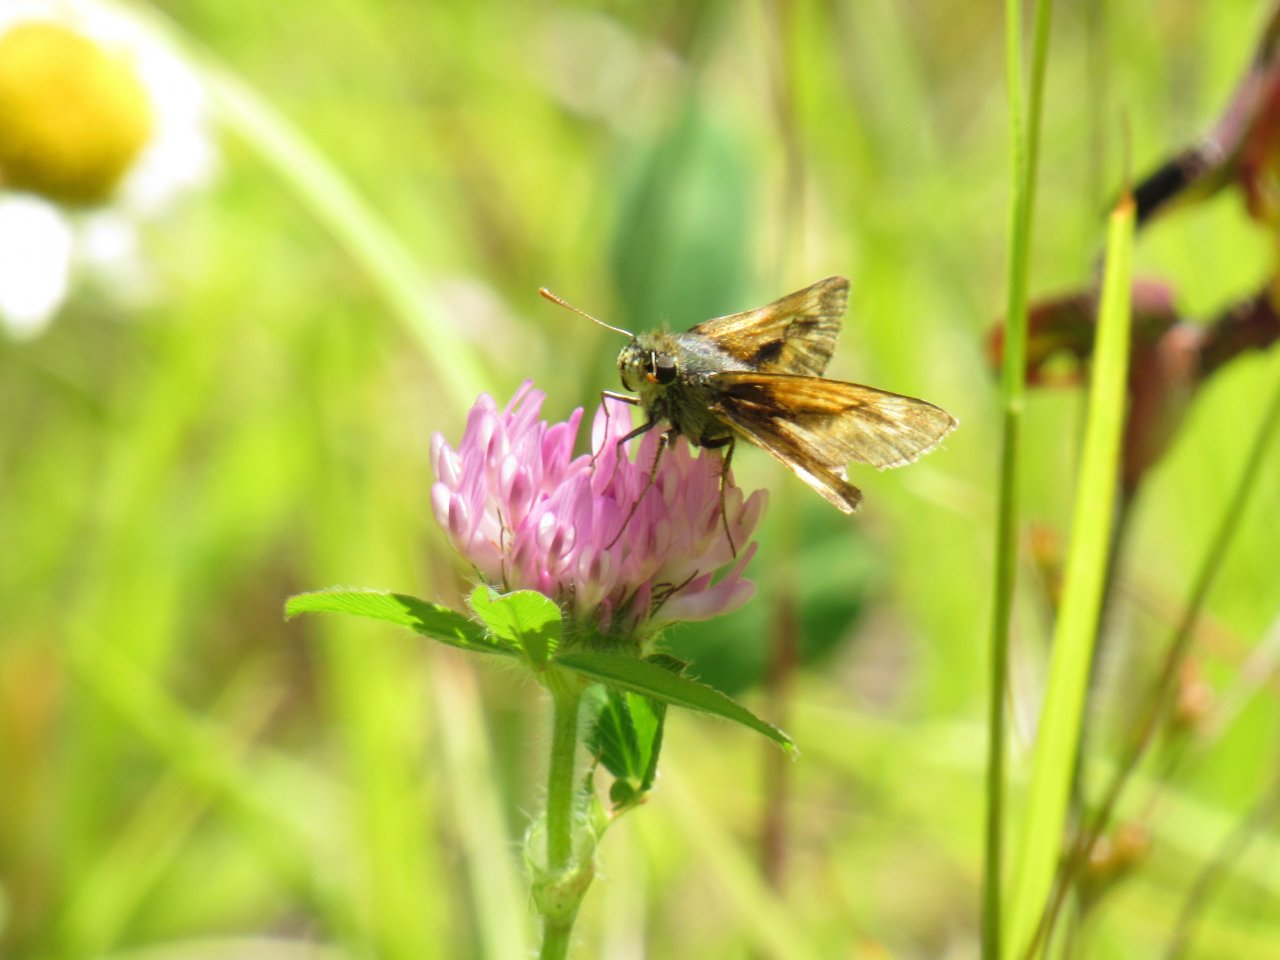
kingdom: Animalia
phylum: Arthropoda
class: Insecta
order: Lepidoptera
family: Hesperiidae
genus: Polites
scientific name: Polites
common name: Long Dash Skipper
